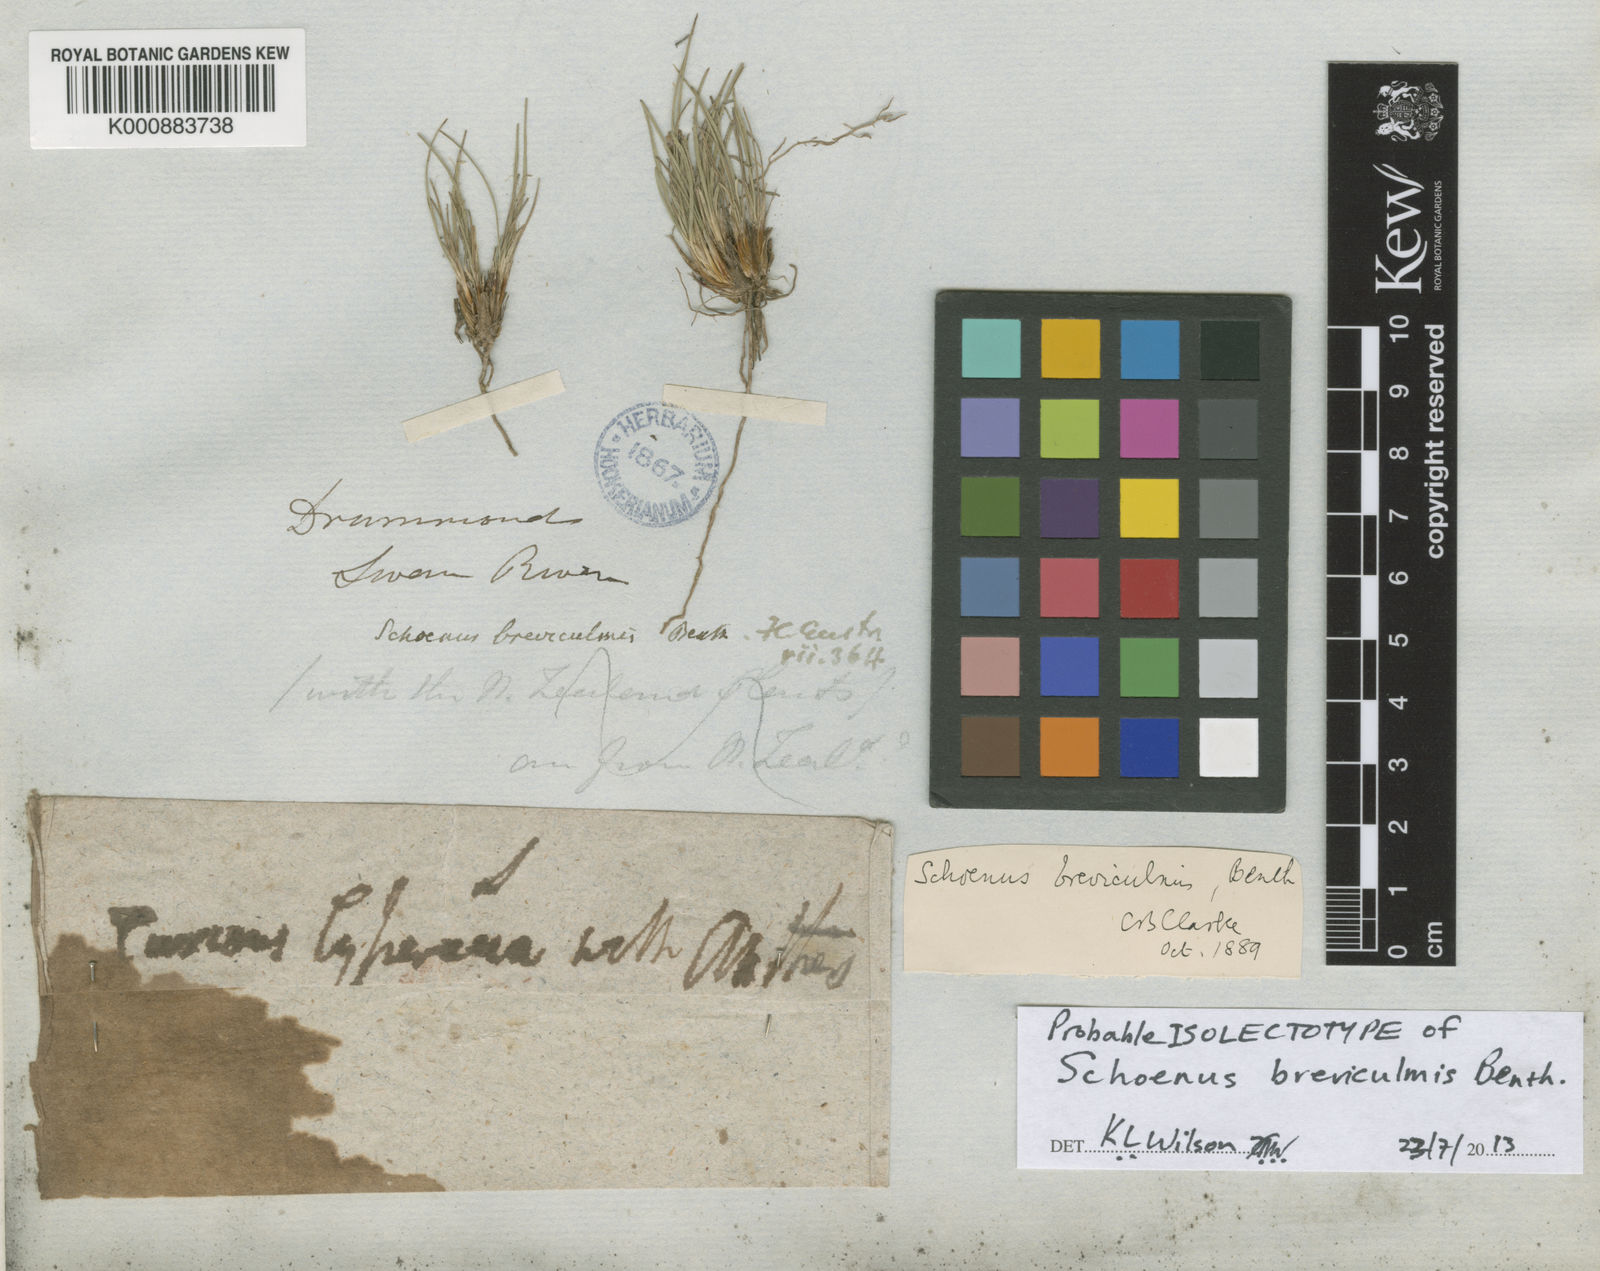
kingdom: Plantae
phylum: Tracheophyta
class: Liliopsida
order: Poales
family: Cyperaceae
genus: Schoenus
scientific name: Schoenus breviculmis
